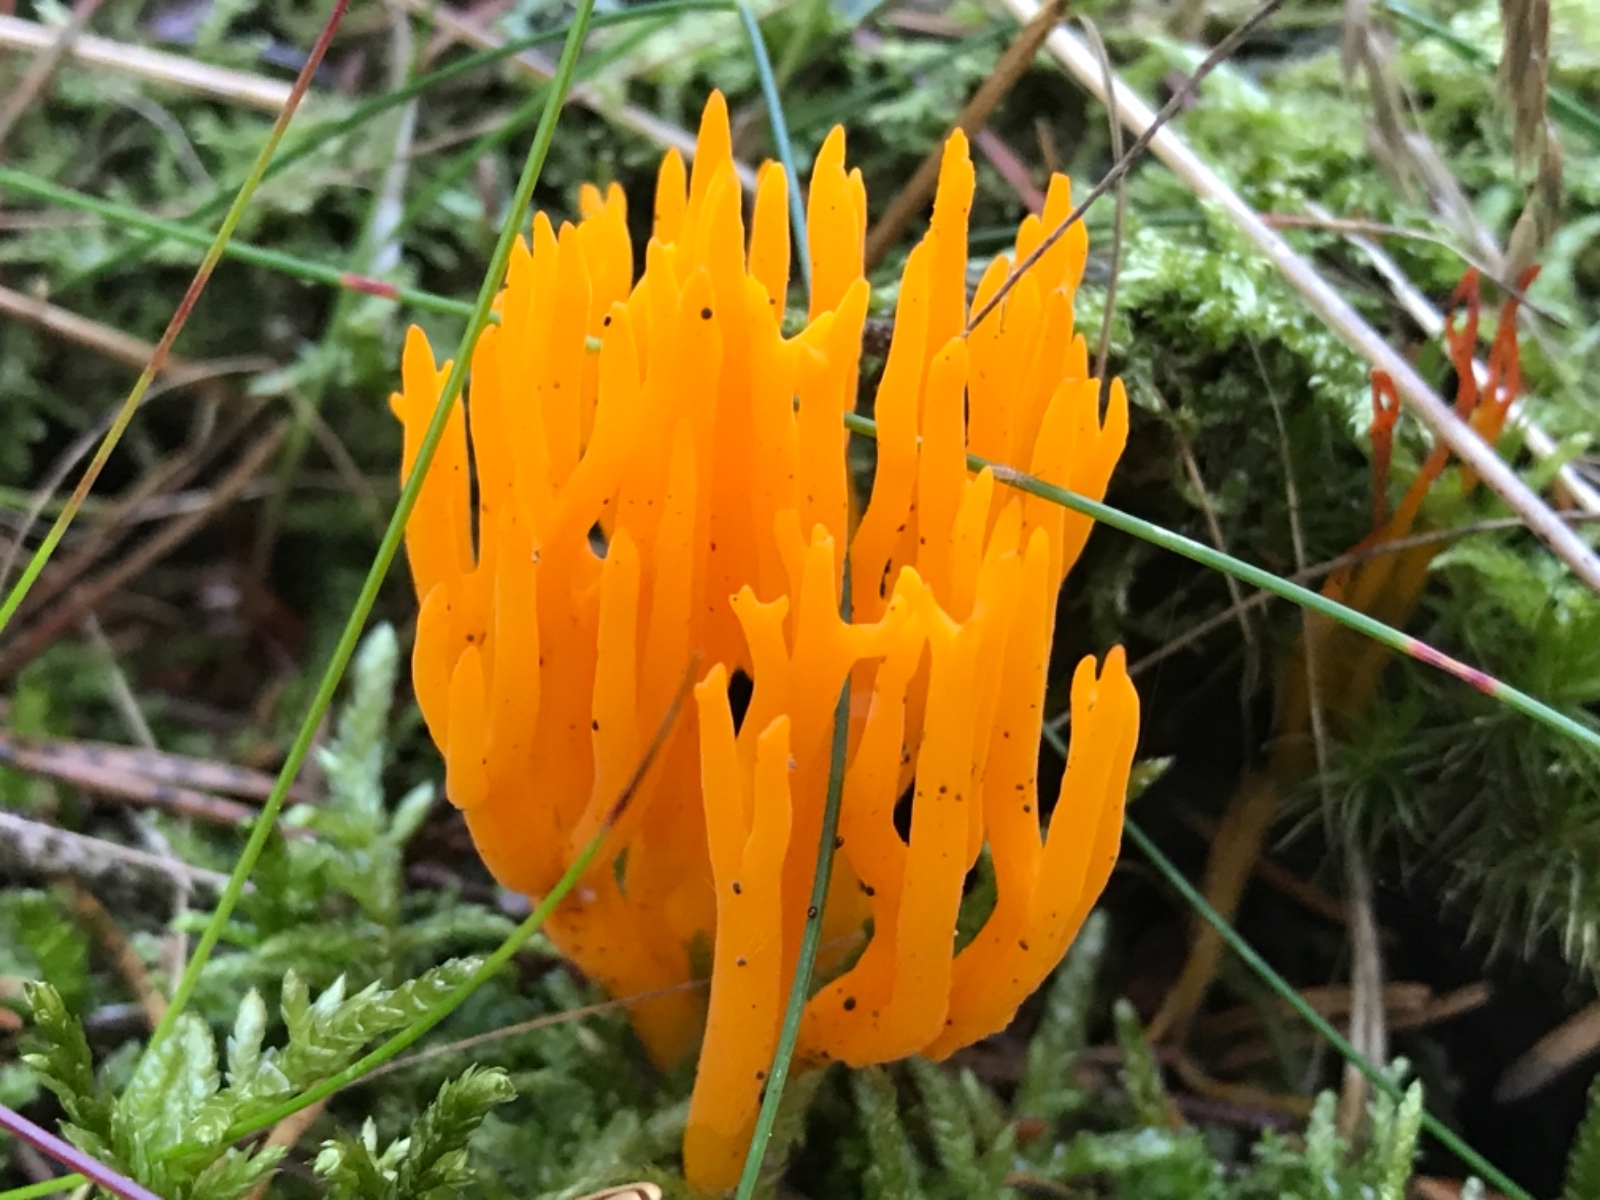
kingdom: Fungi
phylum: Basidiomycota
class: Dacrymycetes
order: Dacrymycetales
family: Dacrymycetaceae
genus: Calocera
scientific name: Calocera viscosa
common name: almindelig guldgaffel
